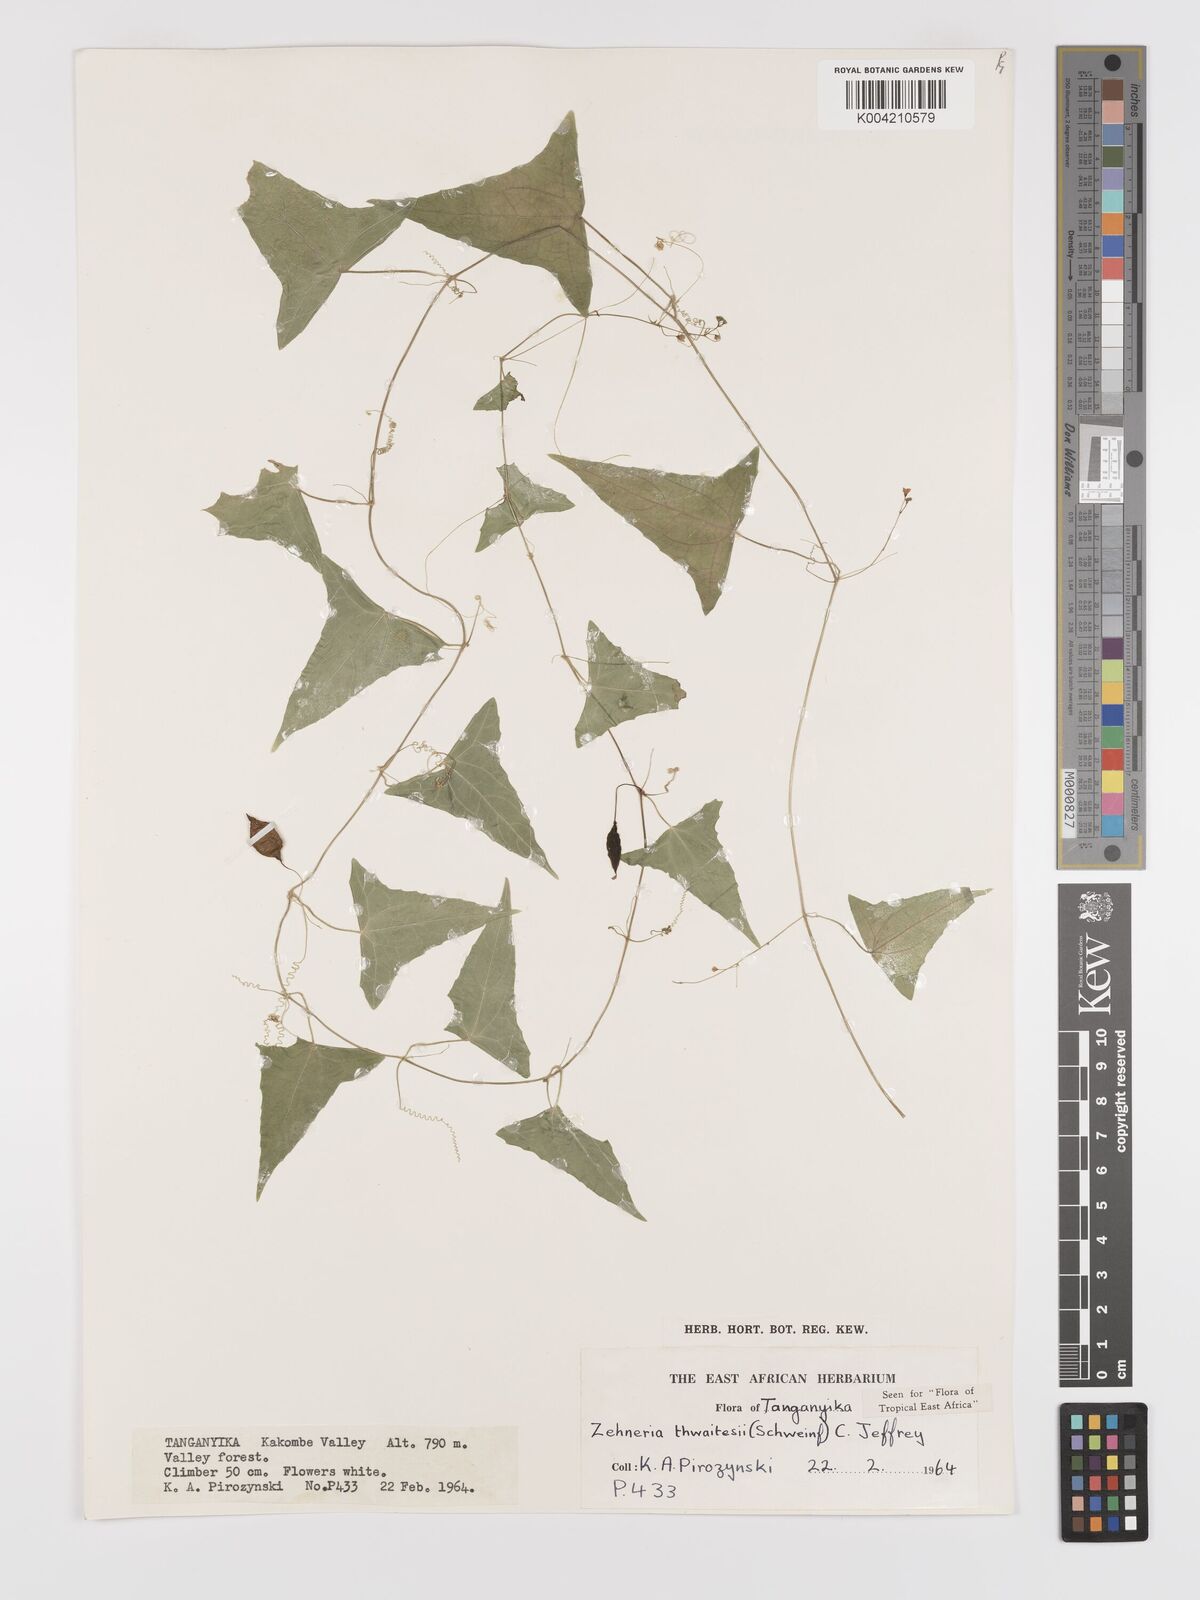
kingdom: Plantae
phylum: Tracheophyta
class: Magnoliopsida
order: Cucurbitales
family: Cucurbitaceae
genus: Zehneria
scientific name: Zehneria thwaitesii
